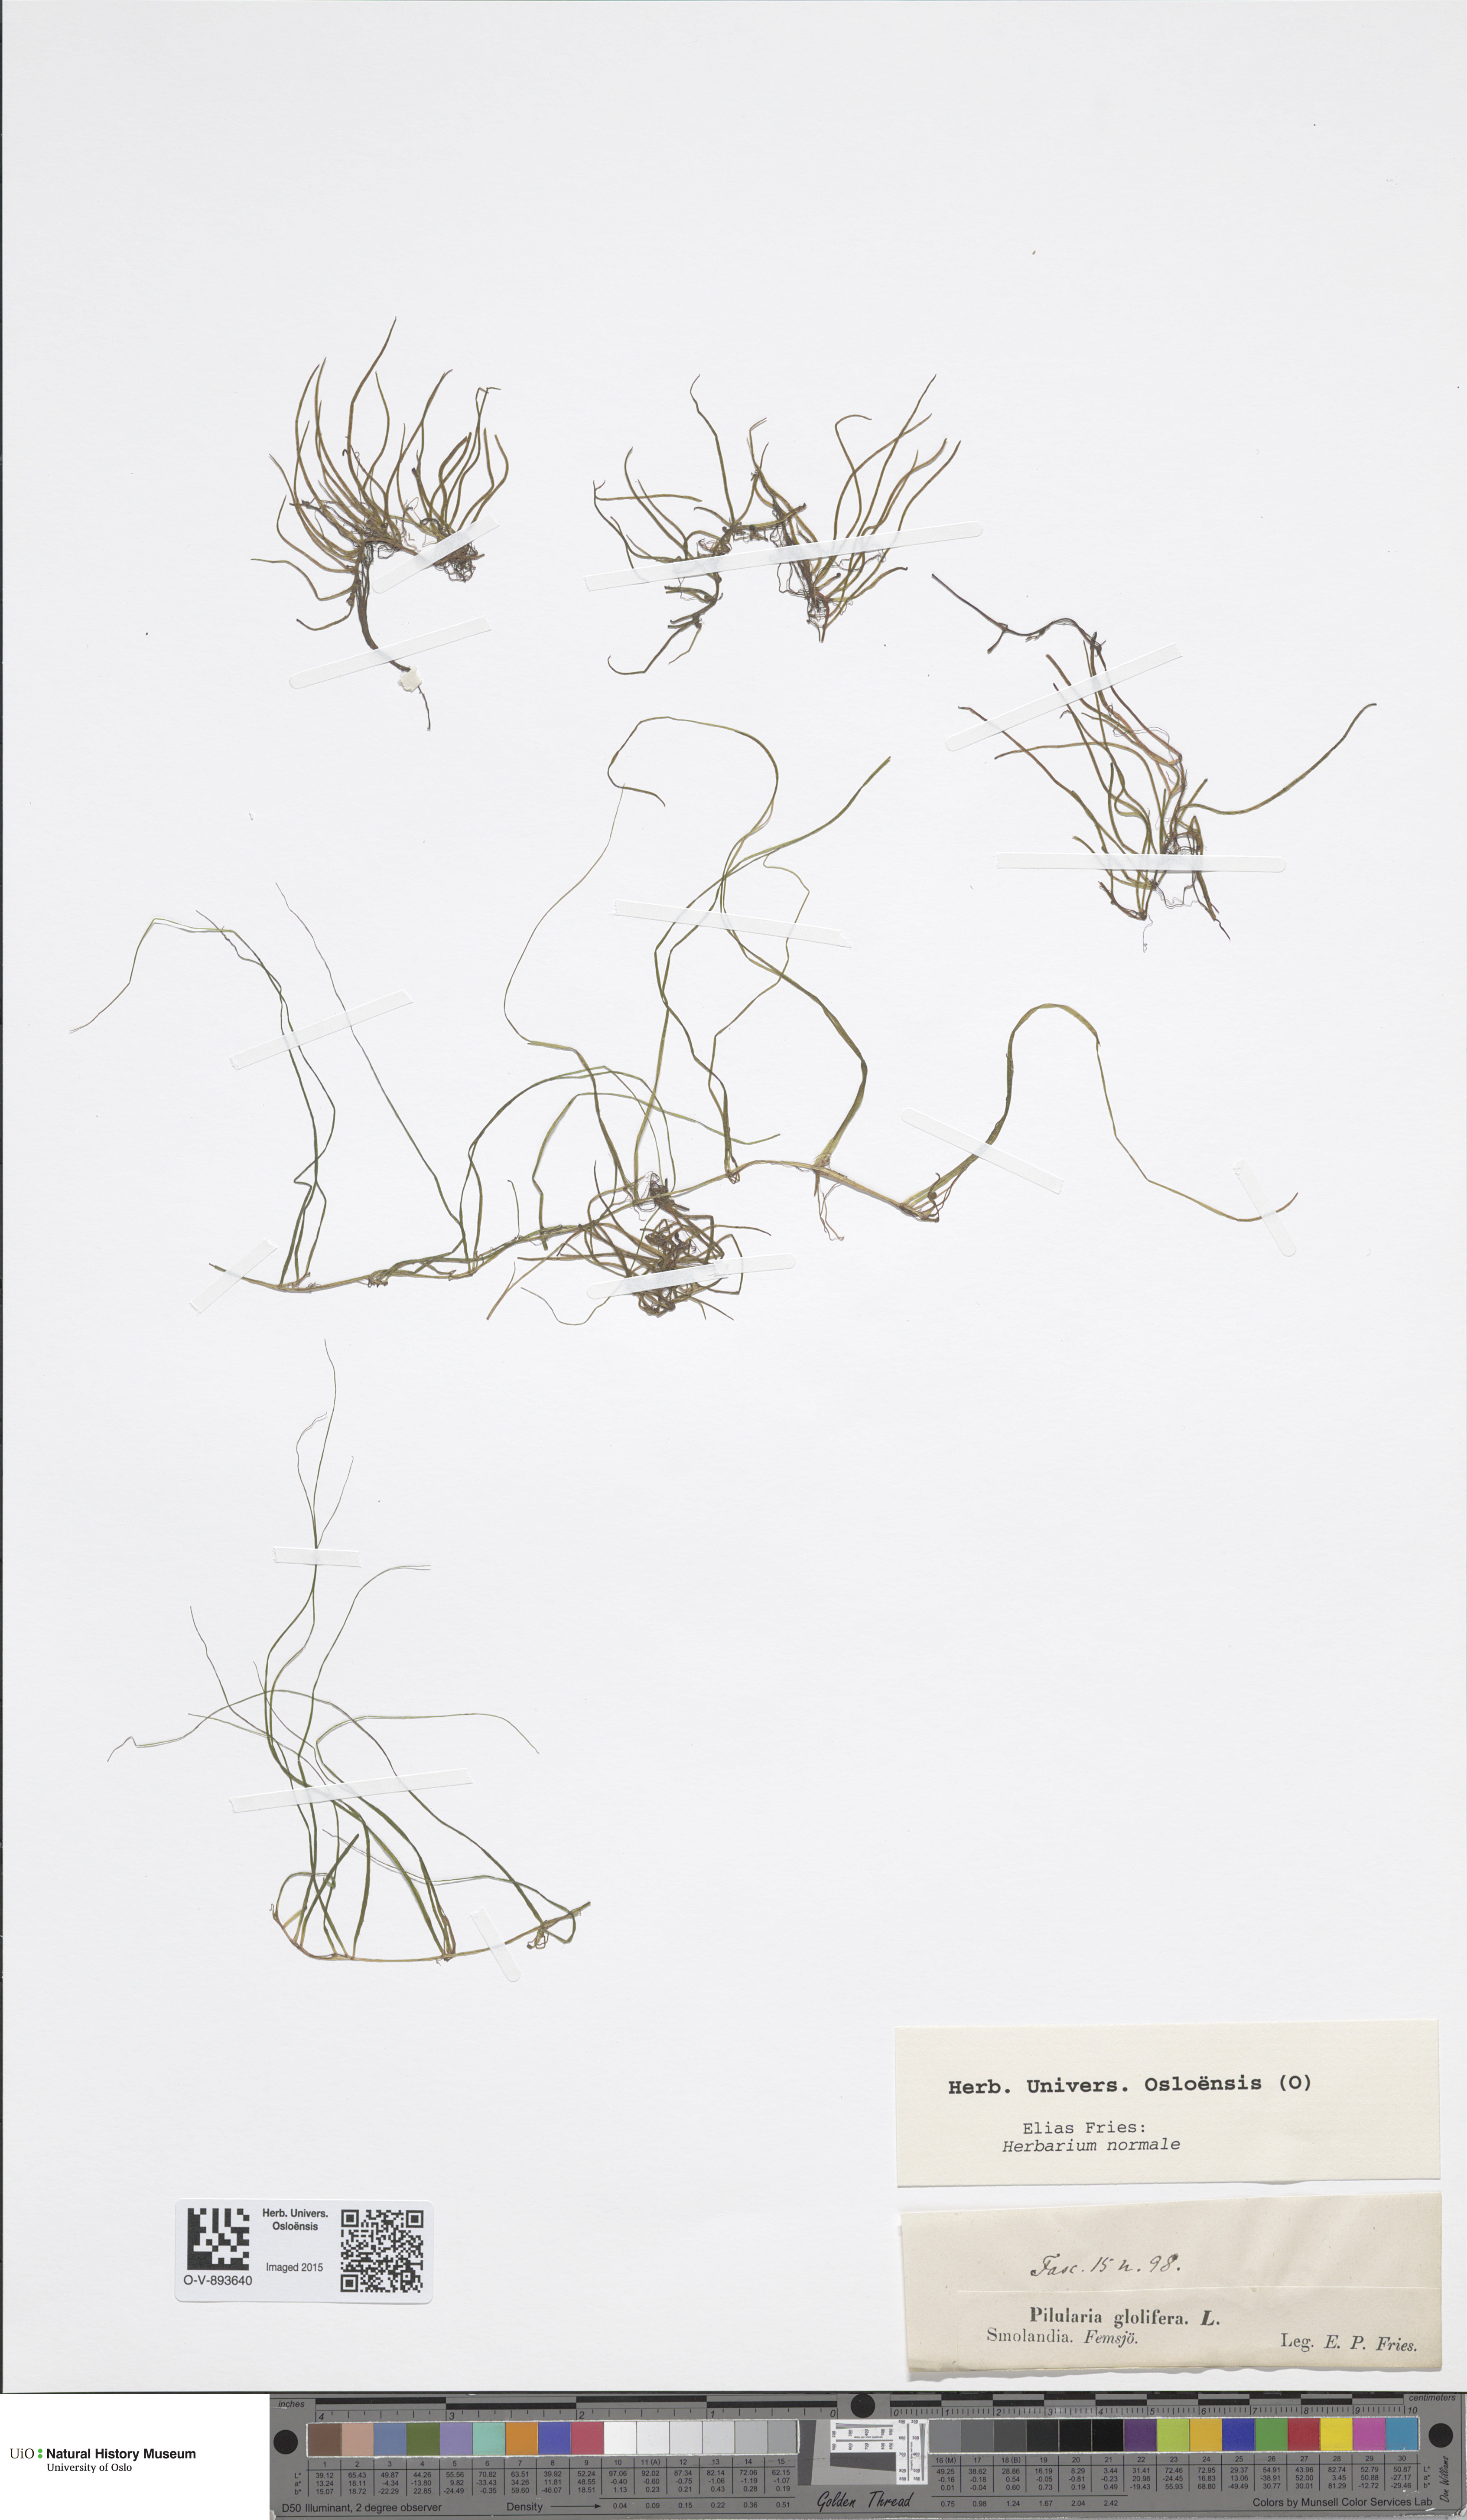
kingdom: Plantae
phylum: Tracheophyta
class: Polypodiopsida
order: Salviniales
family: Marsileaceae
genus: Pilularia
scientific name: Pilularia globulifera
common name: Pillwort
